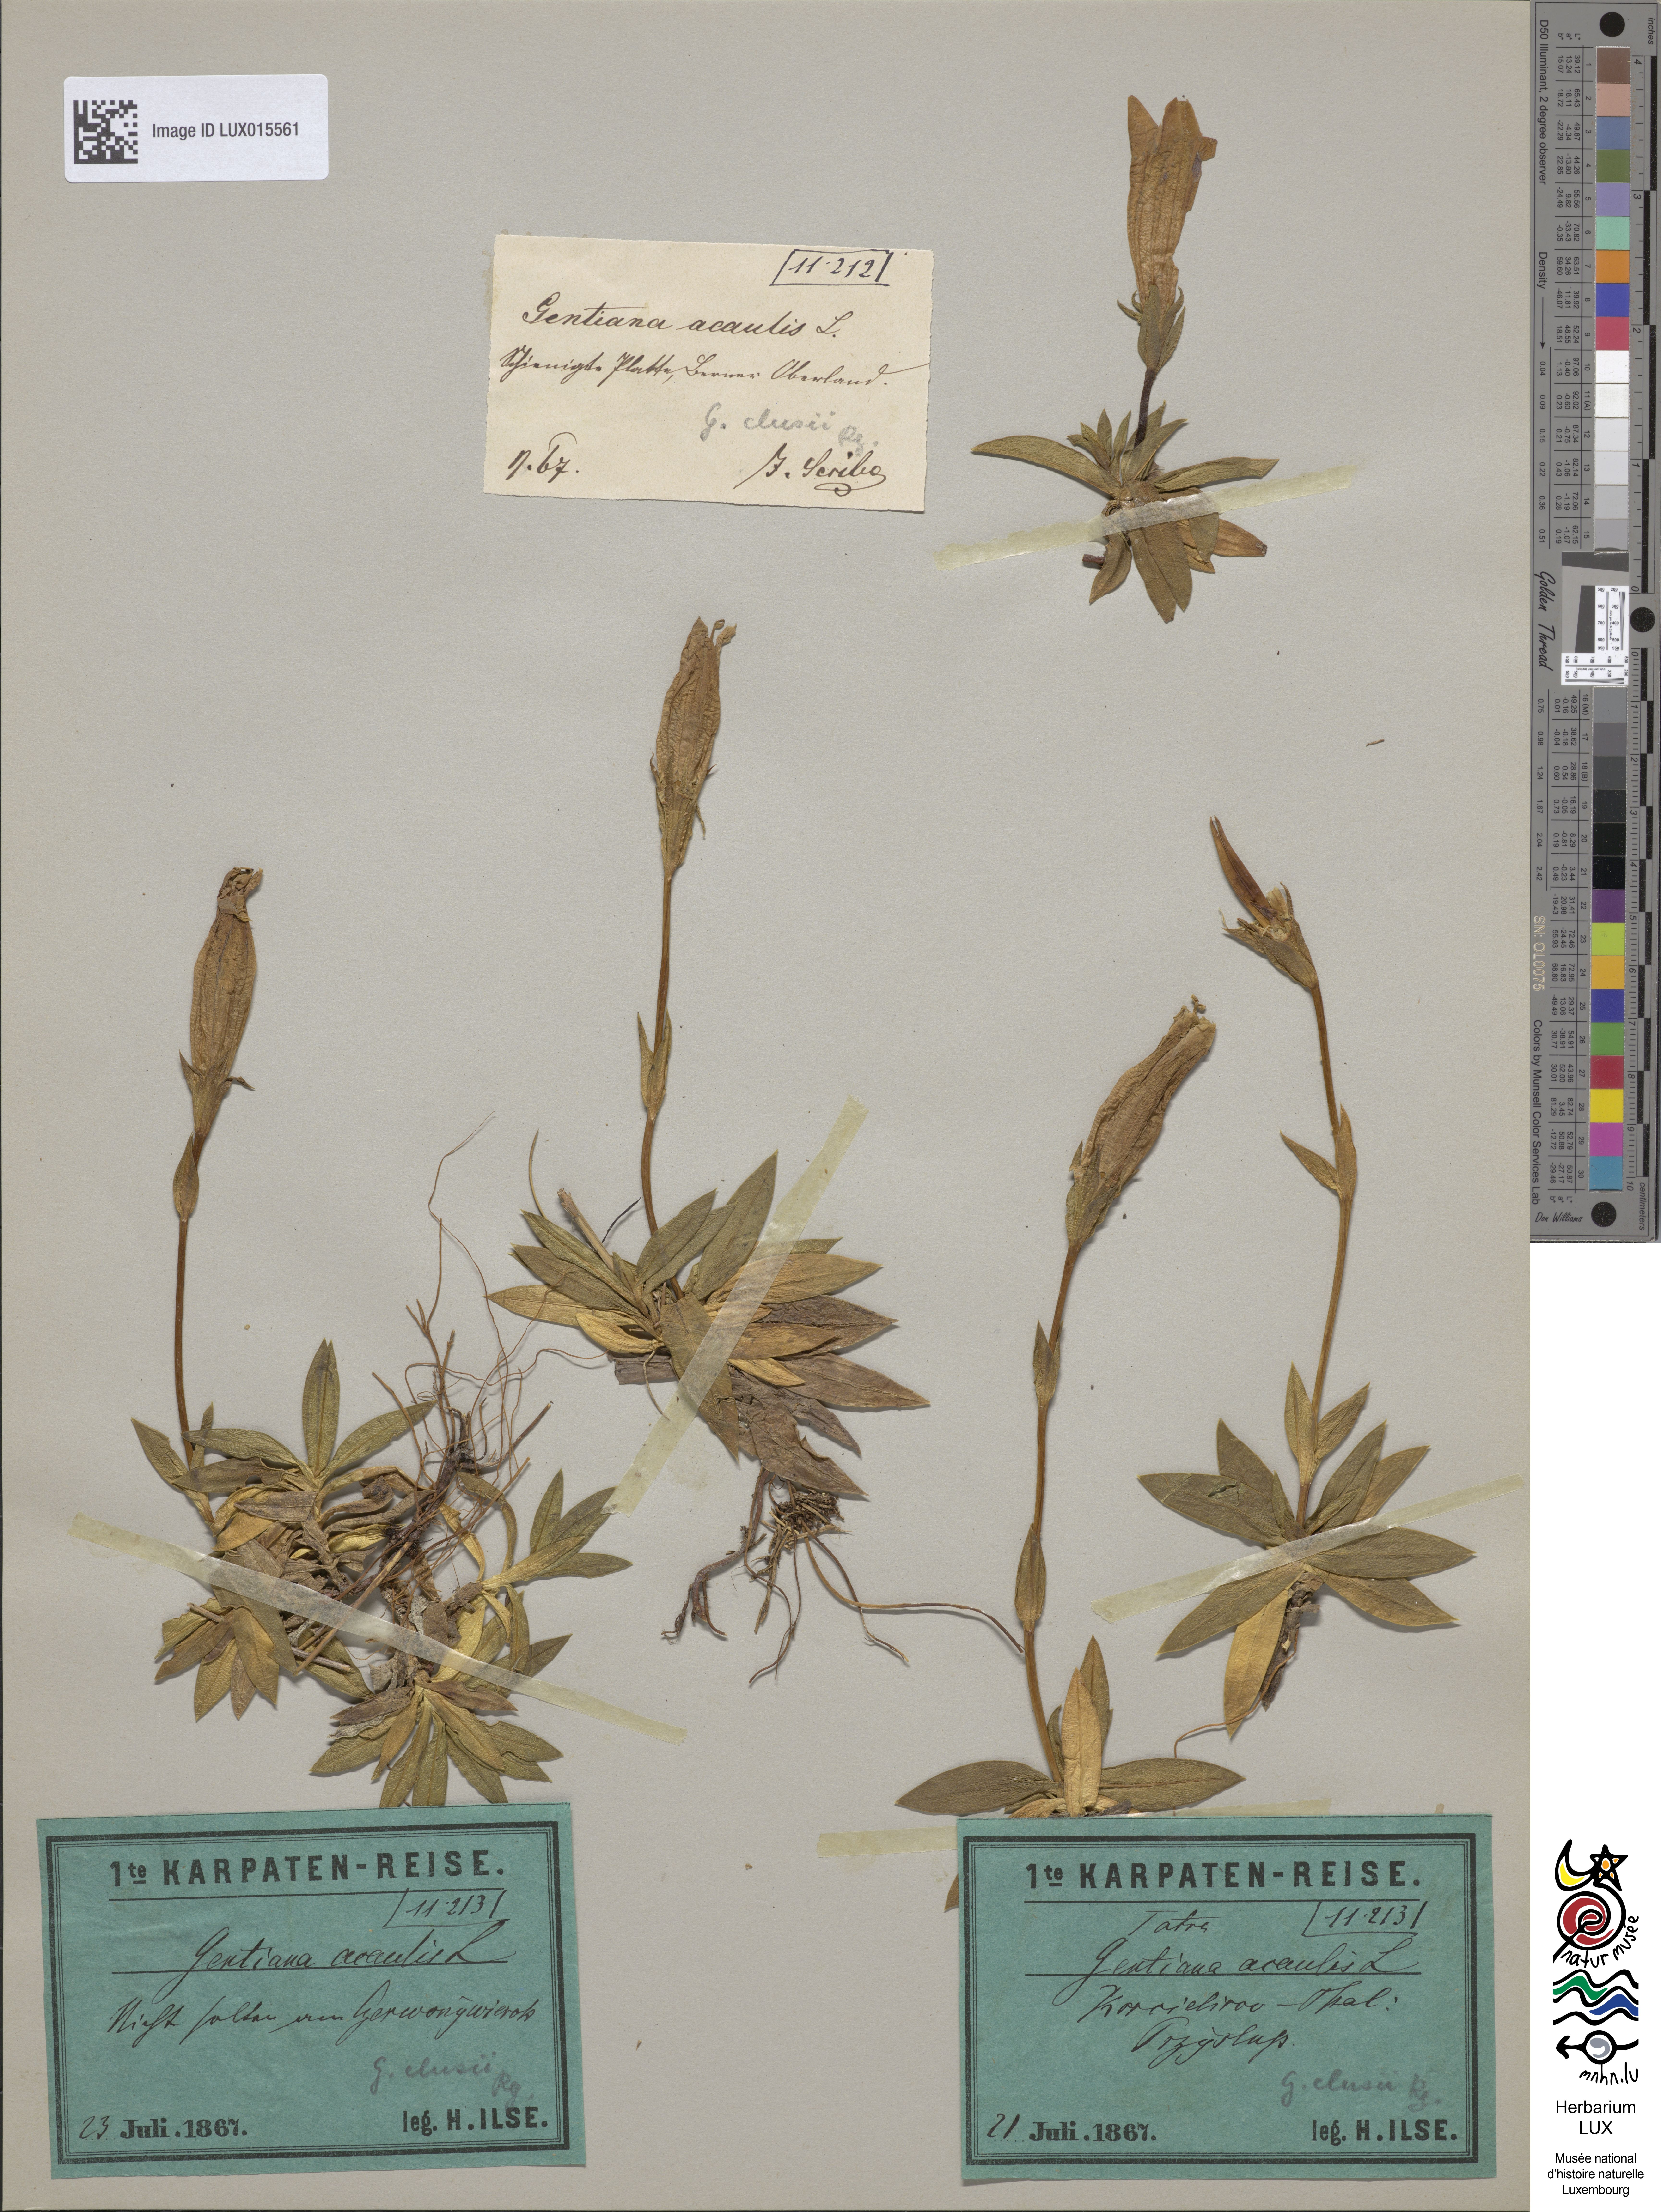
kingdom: Plantae
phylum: Tracheophyta
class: Magnoliopsida
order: Gentianales
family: Gentianaceae
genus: Gentiana
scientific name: Gentiana clusii
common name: Trumpet gentian
